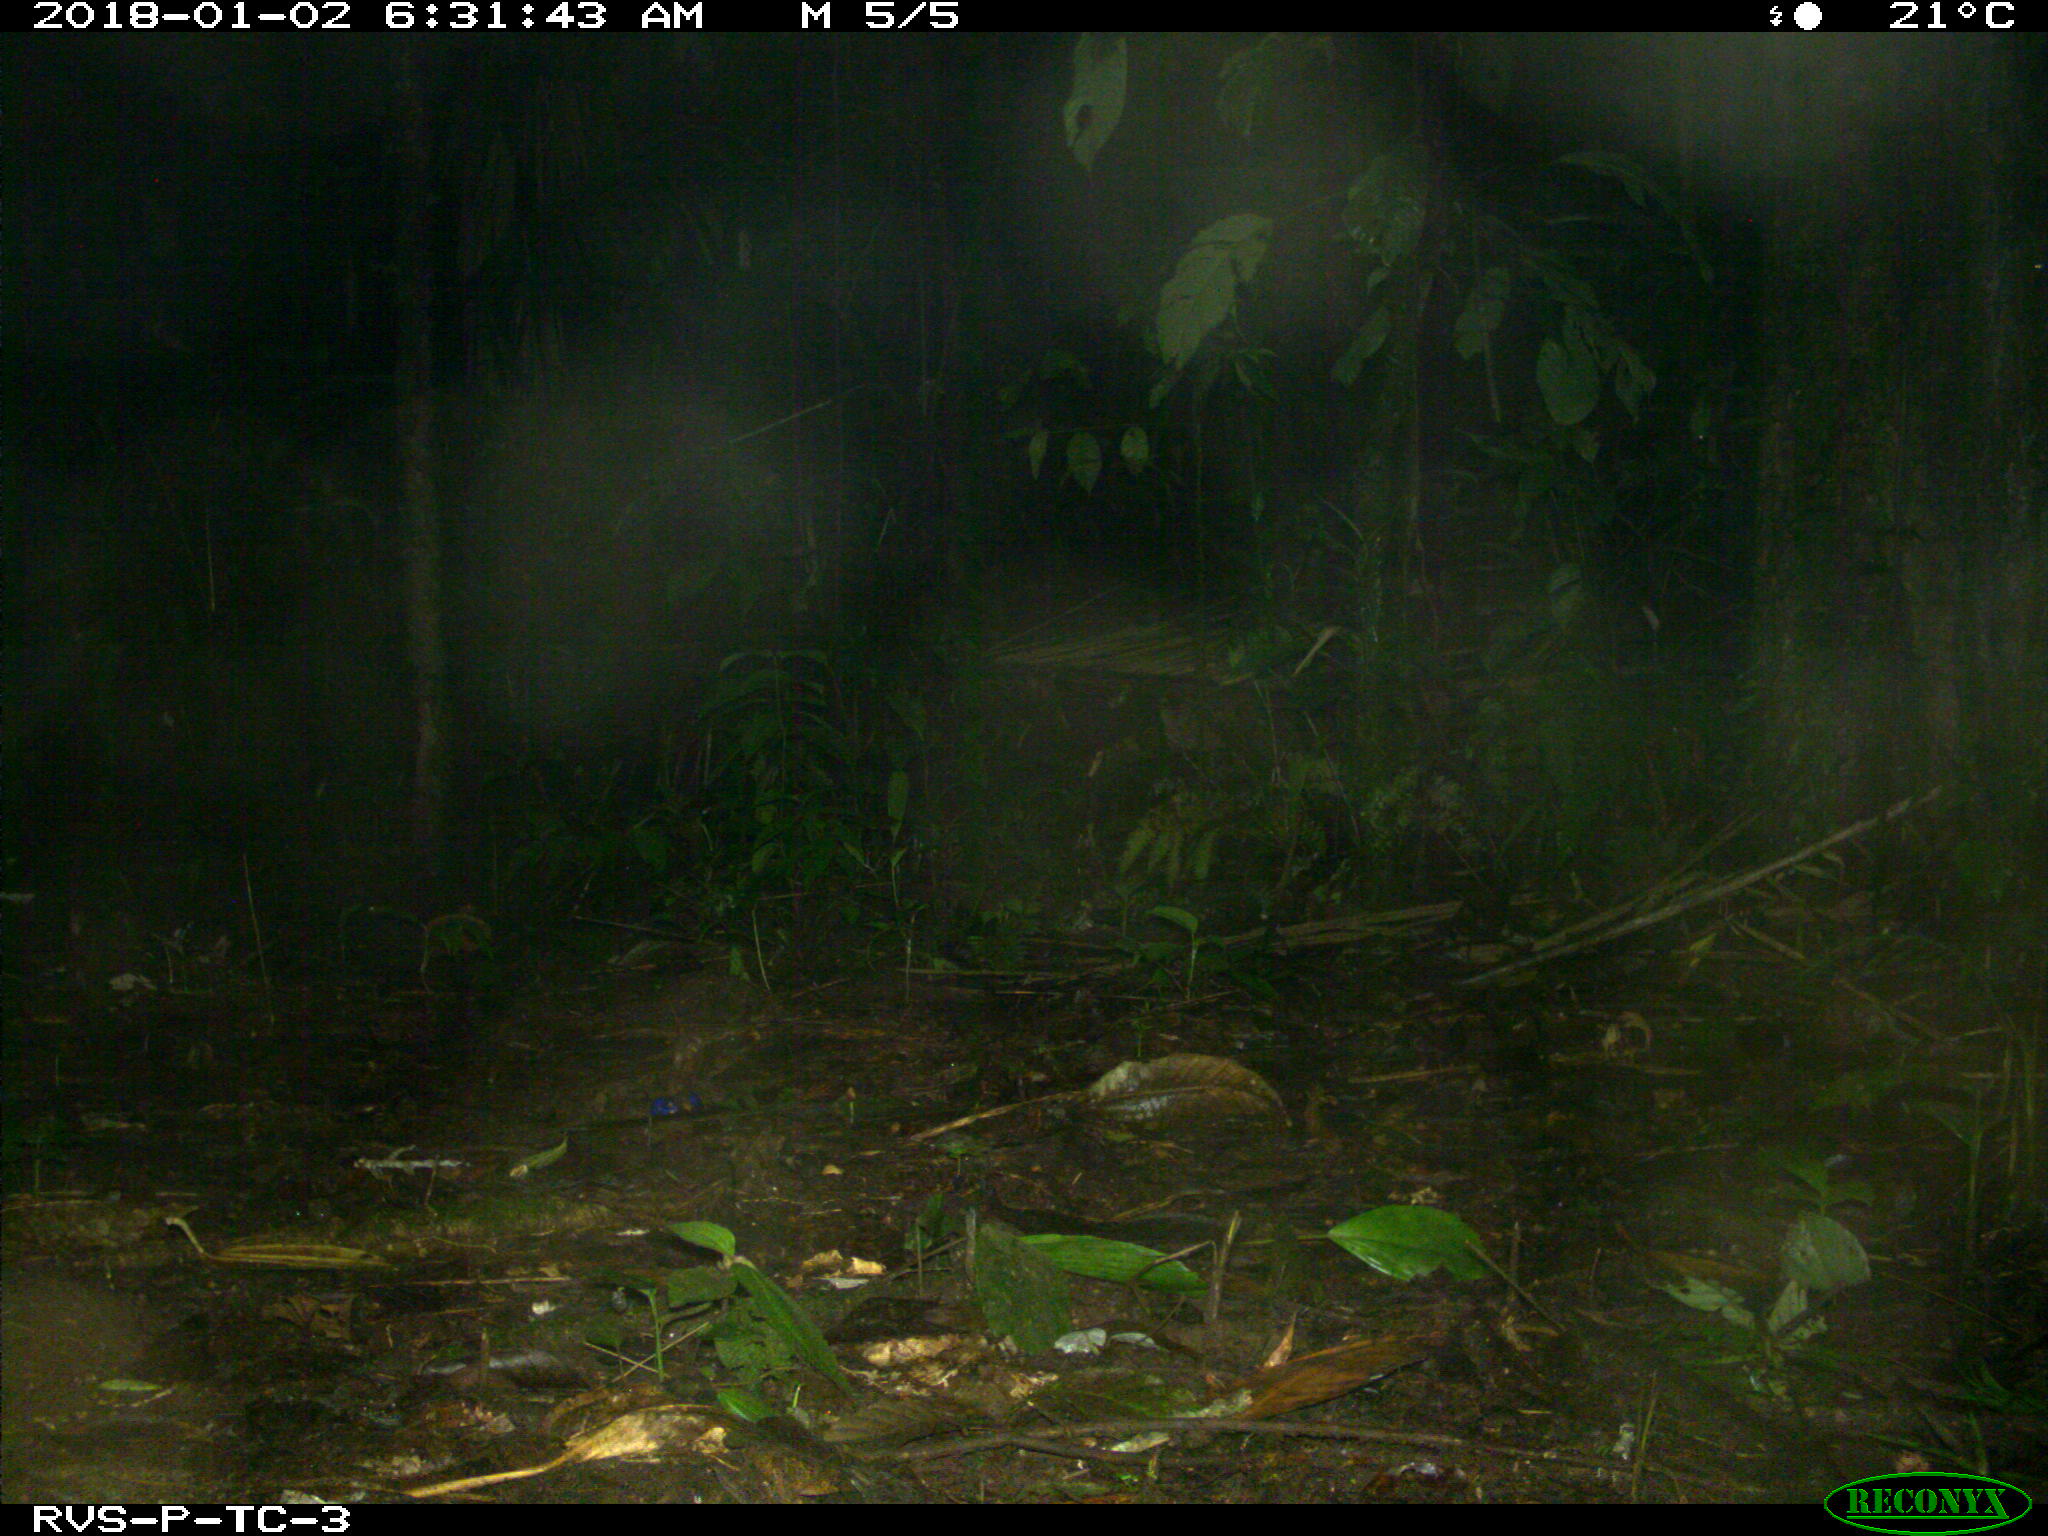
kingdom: Animalia
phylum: Chordata
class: Mammalia
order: Rodentia
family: Dasyproctidae
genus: Dasyprocta
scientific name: Dasyprocta punctata
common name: Central american agouti
